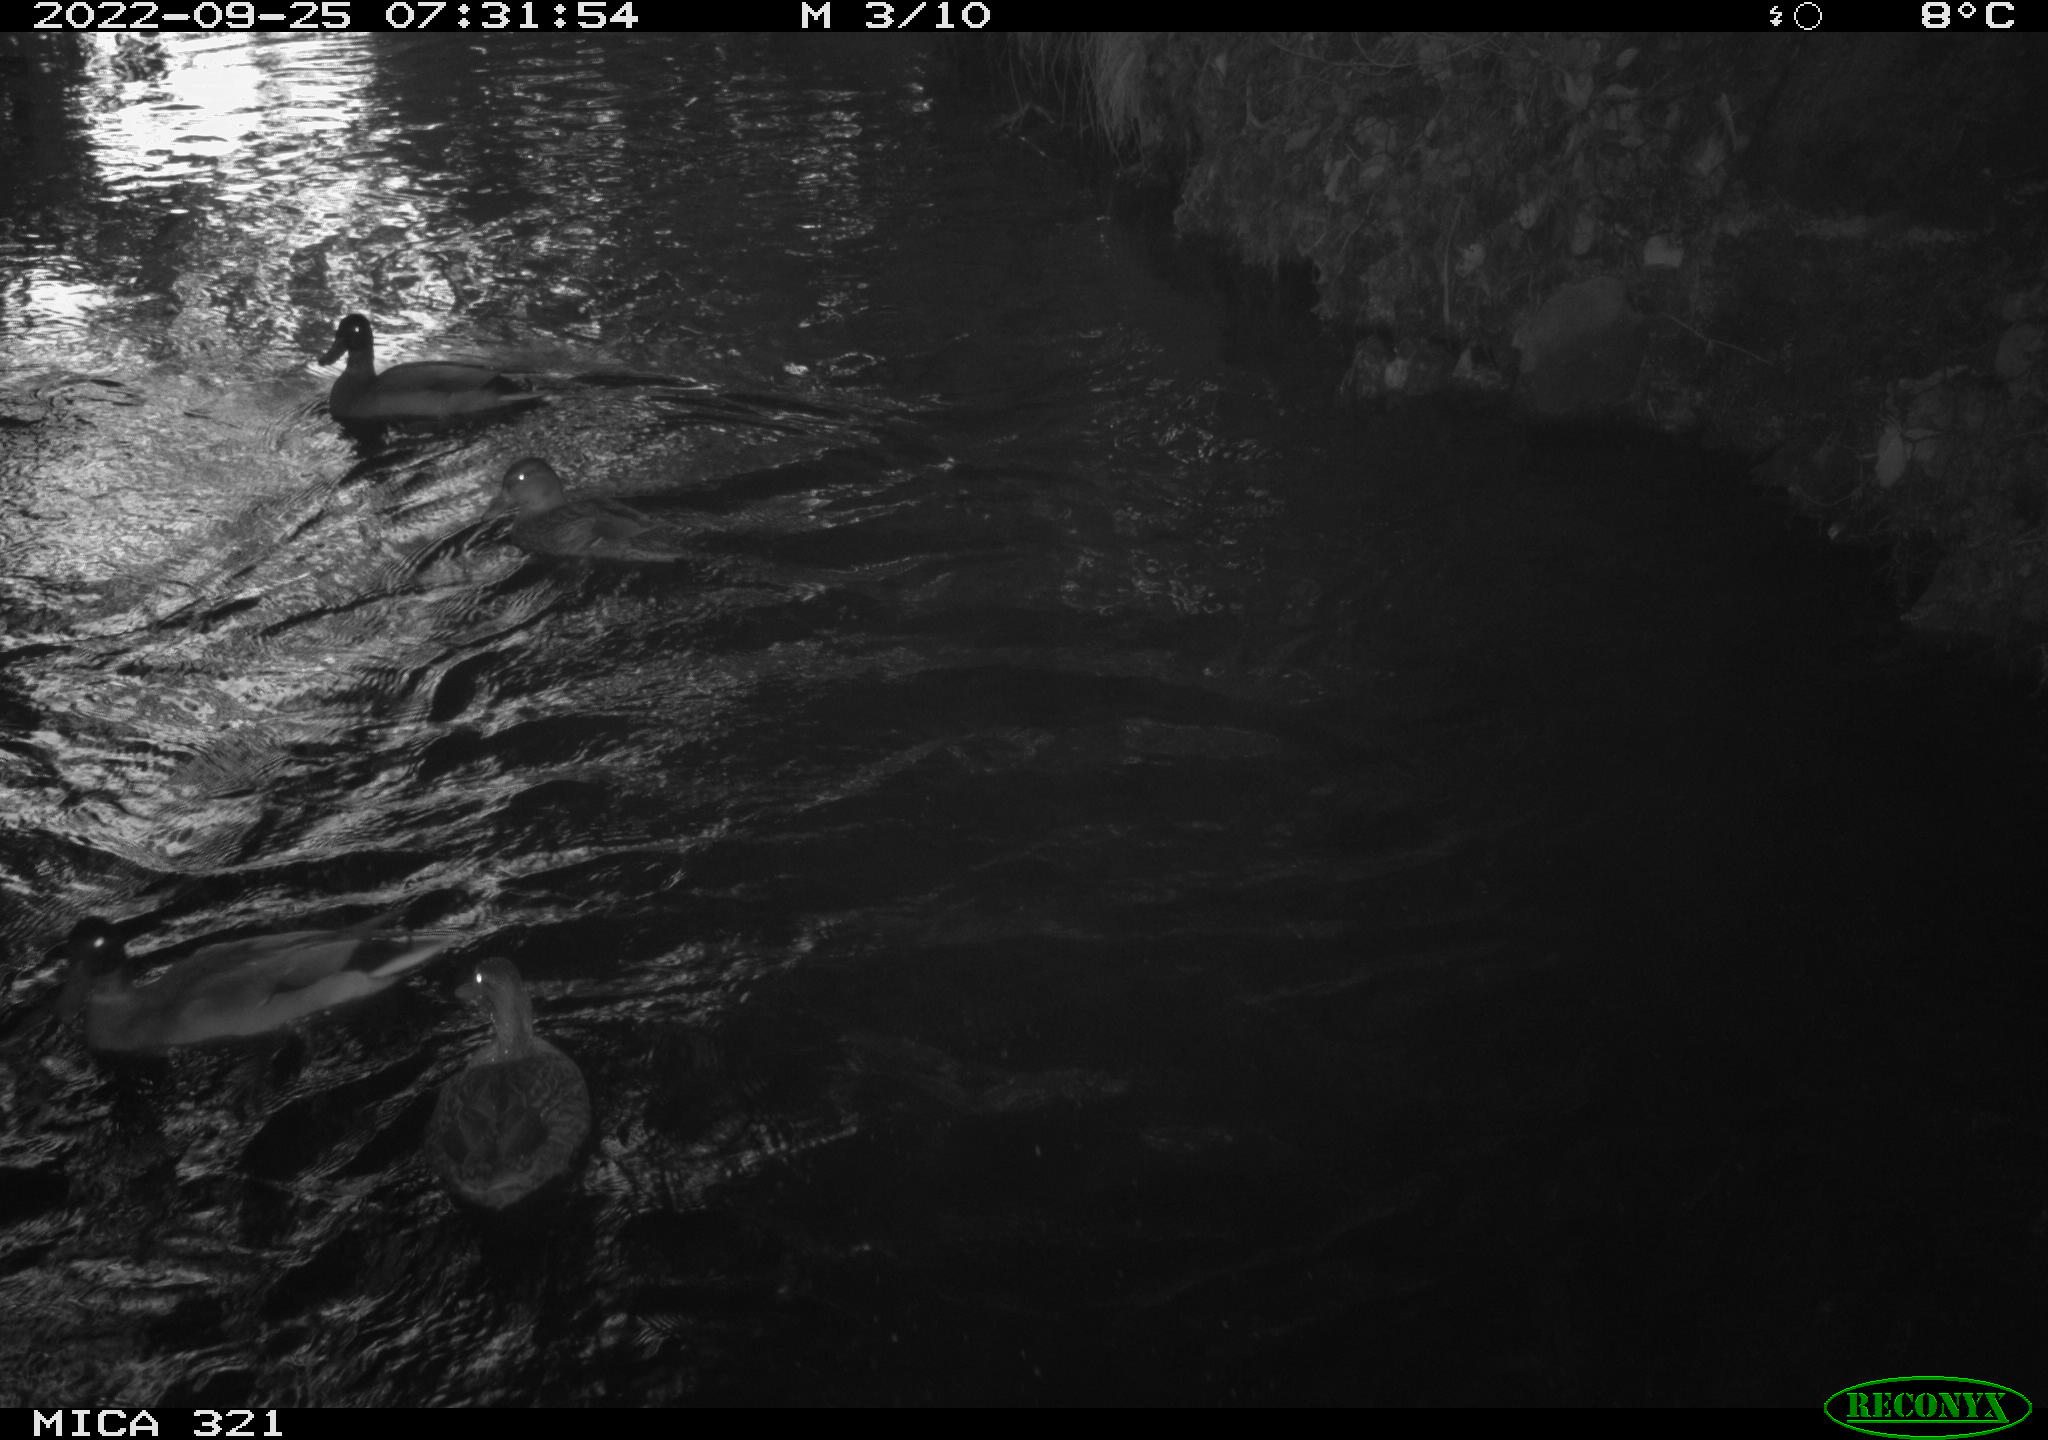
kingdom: Animalia
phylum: Chordata
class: Aves
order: Anseriformes
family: Anatidae
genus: Anas
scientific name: Anas
